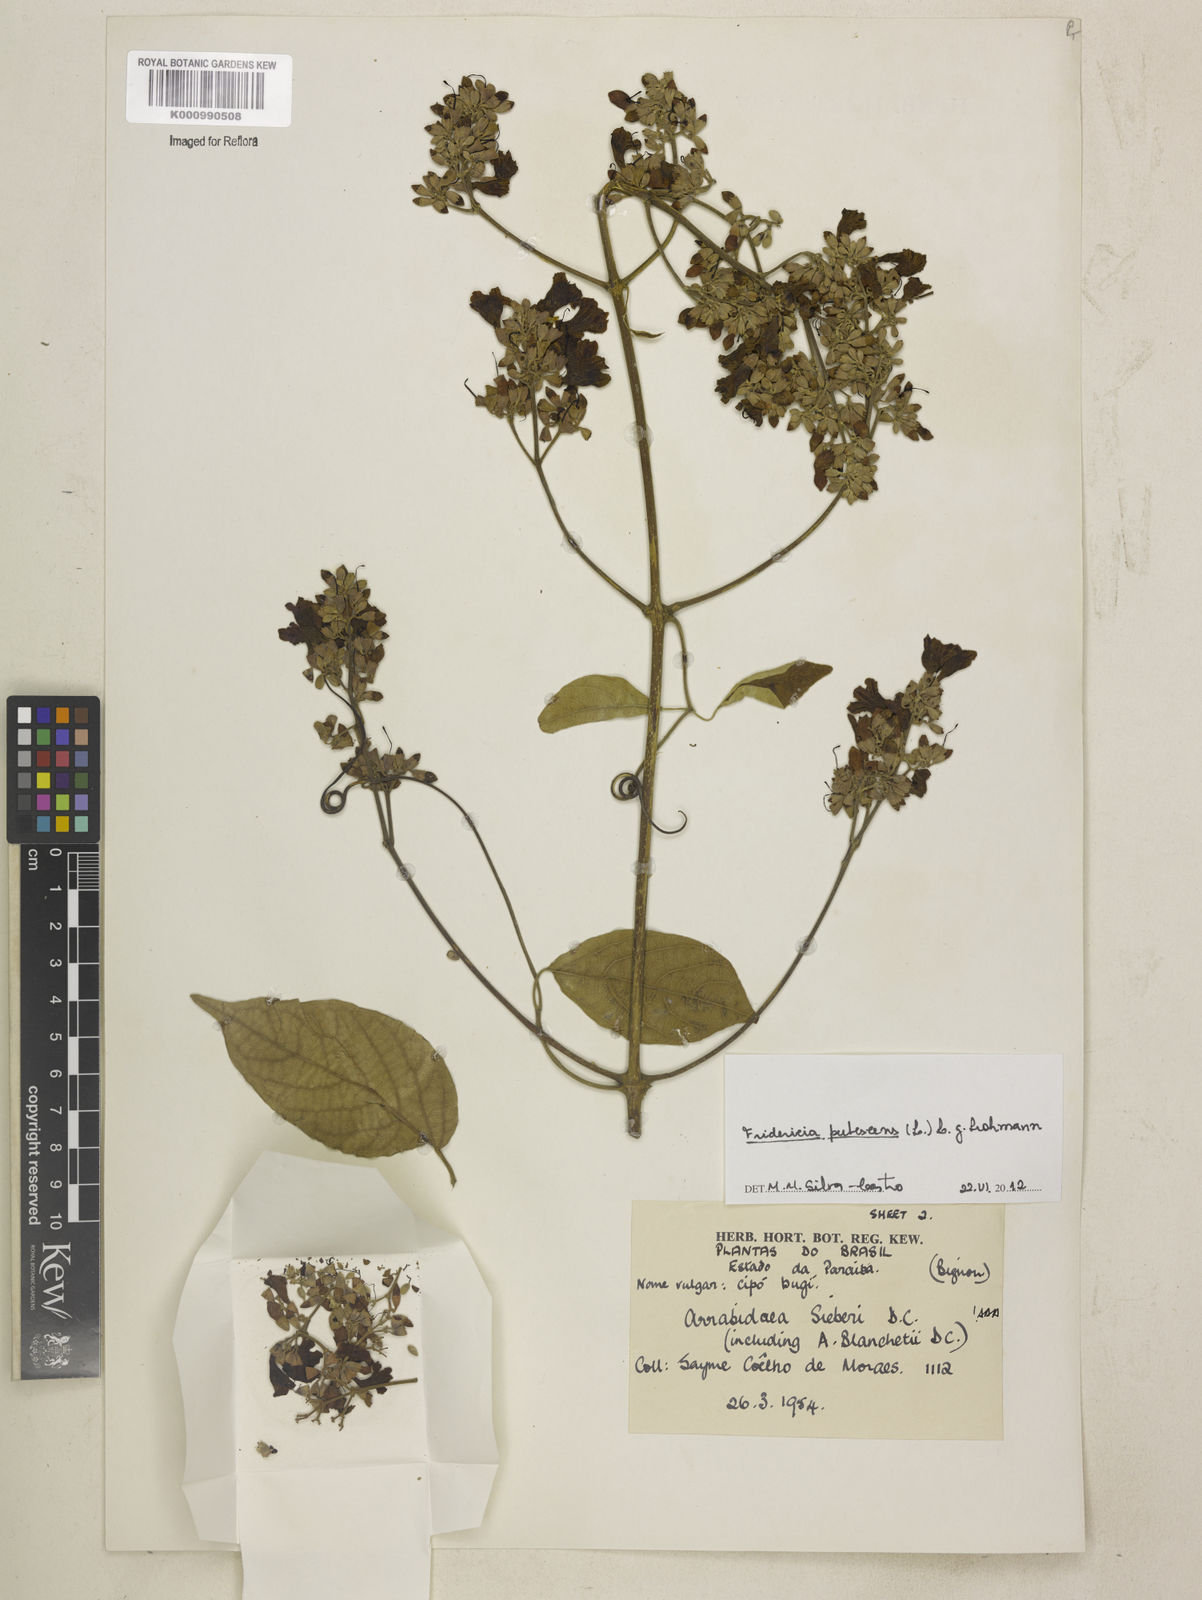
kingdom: Plantae
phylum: Tracheophyta
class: Magnoliopsida
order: Lamiales
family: Bignoniaceae
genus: Fridericia
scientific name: Fridericia pubescens
